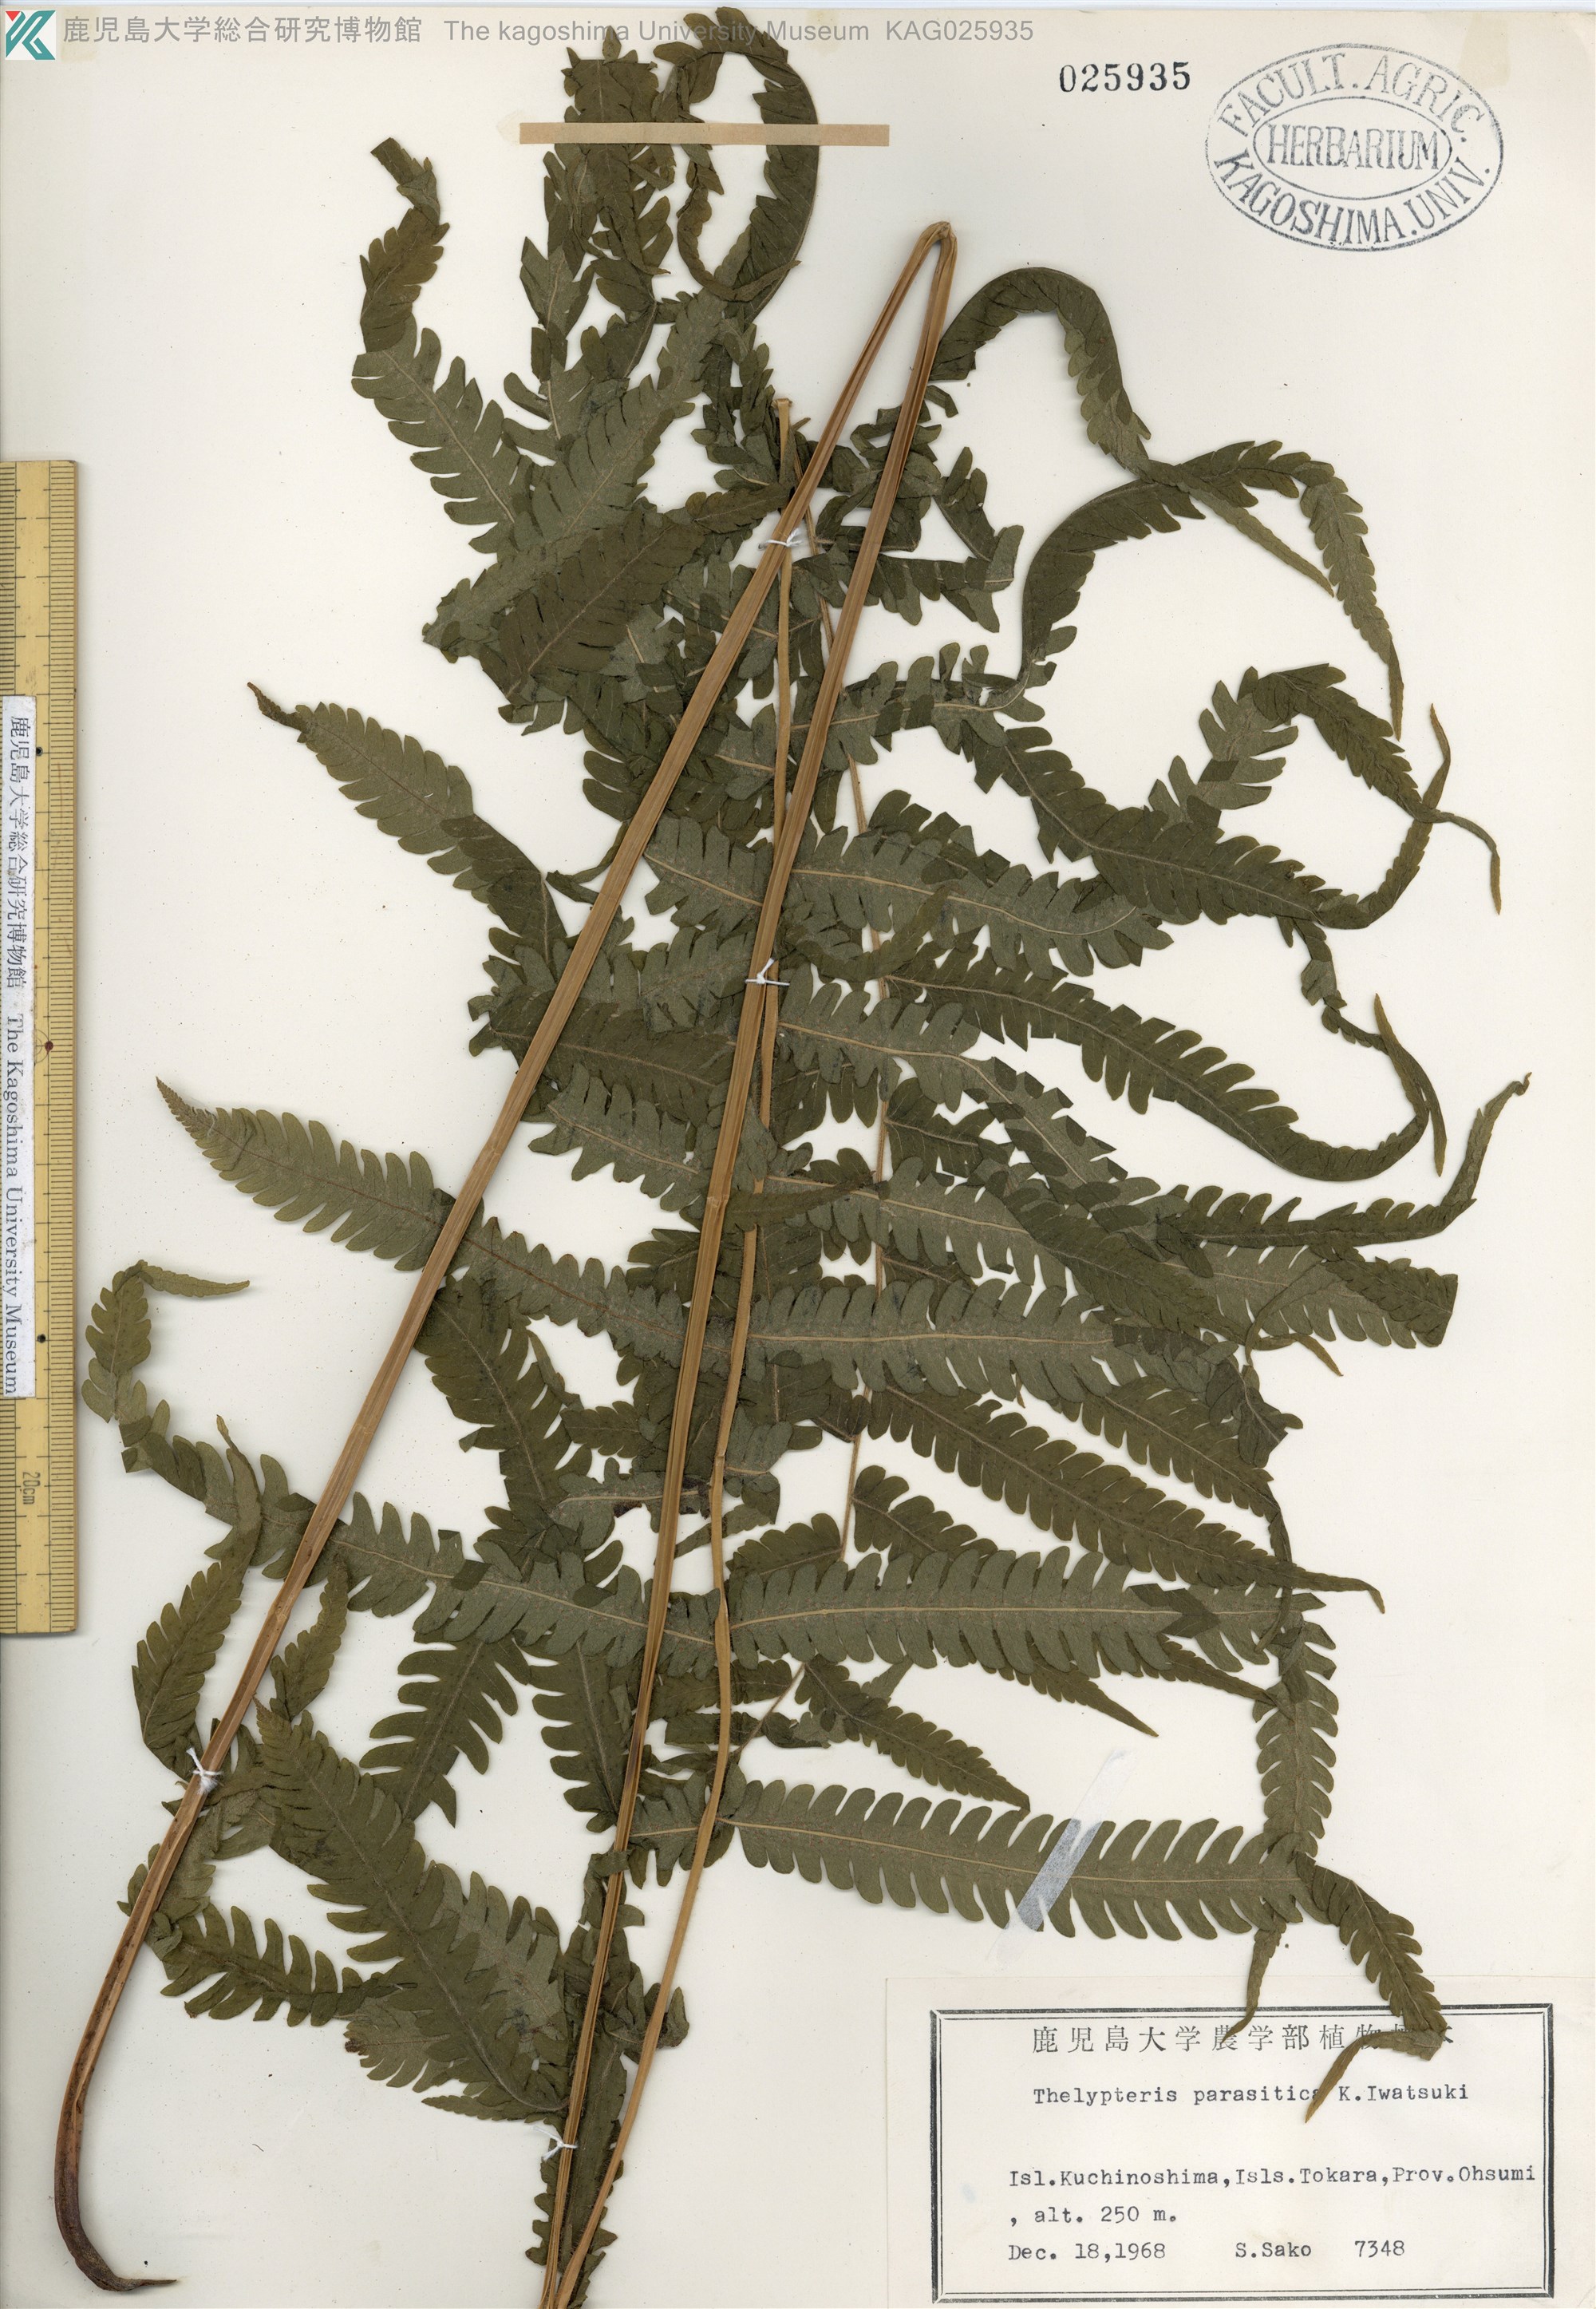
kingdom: Plantae
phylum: Tracheophyta
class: Polypodiopsida
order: Polypodiales
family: Thelypteridaceae
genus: Christella
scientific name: Christella parasitica
